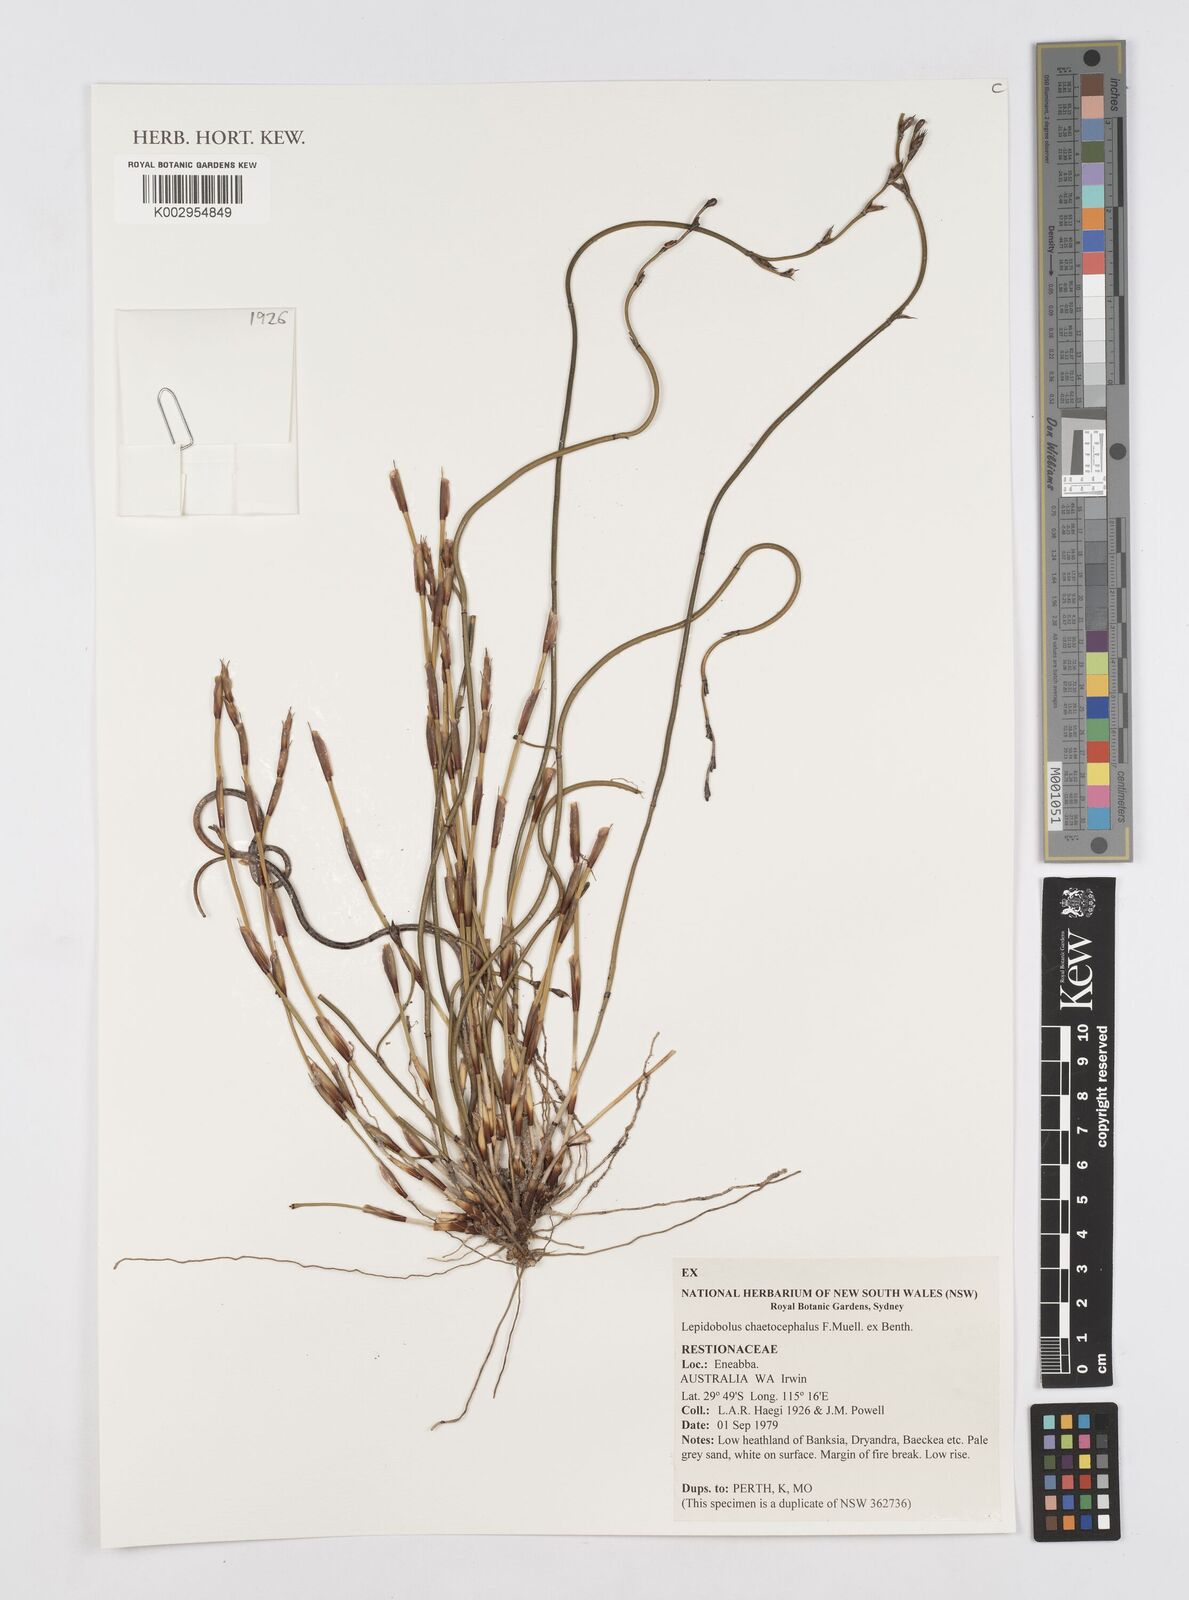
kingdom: Plantae
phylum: Tracheophyta
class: Liliopsida
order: Poales
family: Restionaceae
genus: Lepidobolus
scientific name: Lepidobolus chaetocephalus
